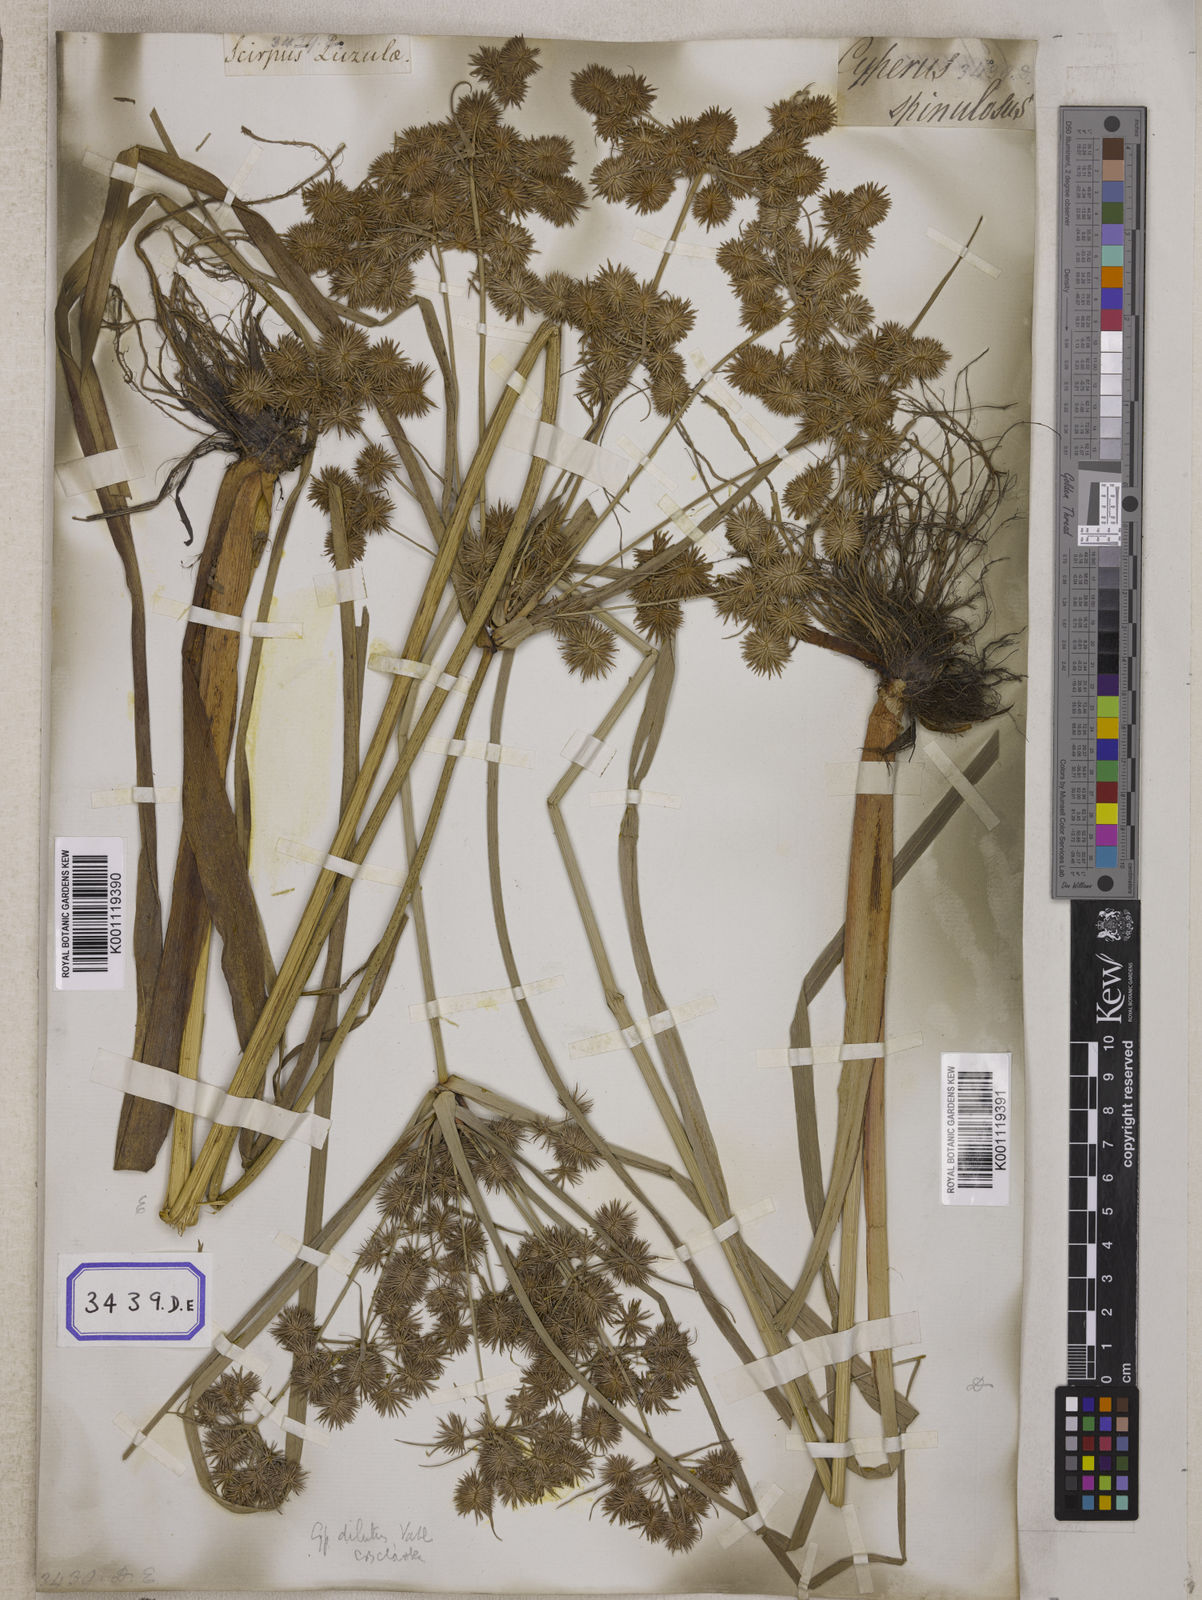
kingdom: Plantae
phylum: Tracheophyta
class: Liliopsida
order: Poales
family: Cyperaceae
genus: Mariscus
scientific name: Mariscus
